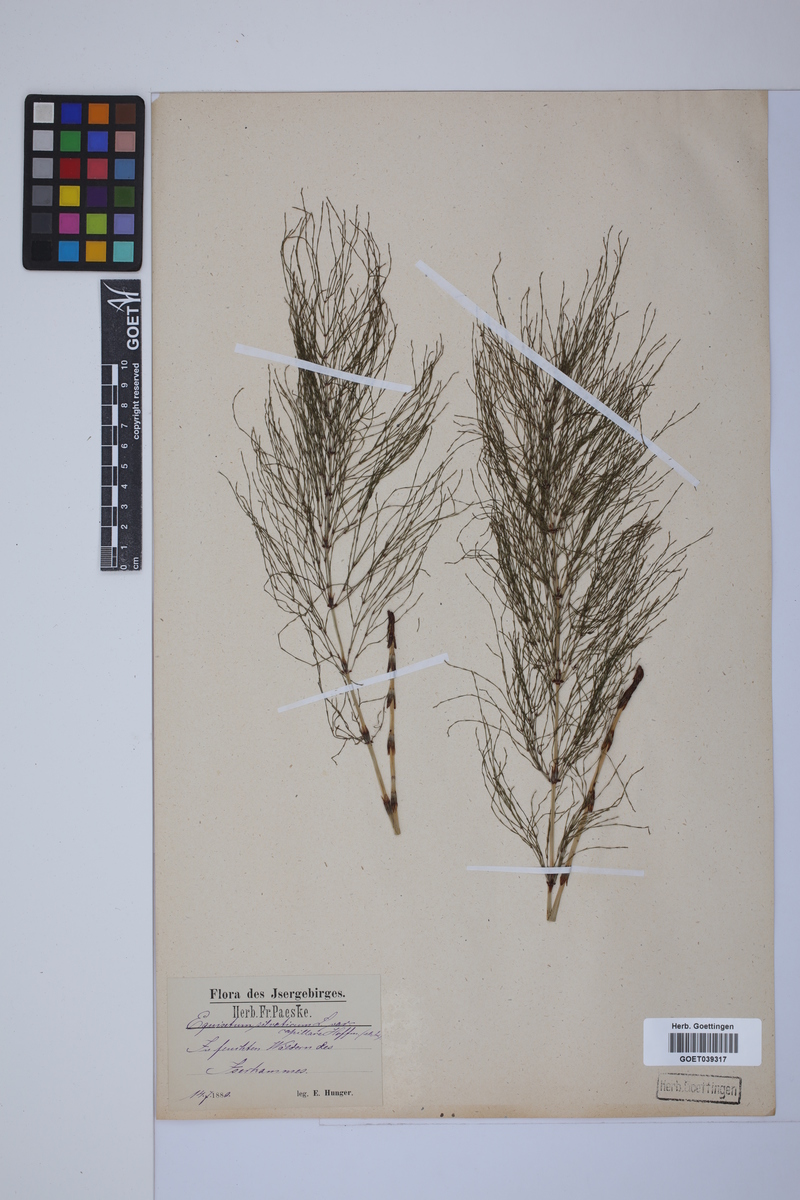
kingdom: Plantae
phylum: Tracheophyta
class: Polypodiopsida
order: Equisetales
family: Equisetaceae
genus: Equisetum
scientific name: Equisetum sylvaticum
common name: Wood horsetail
